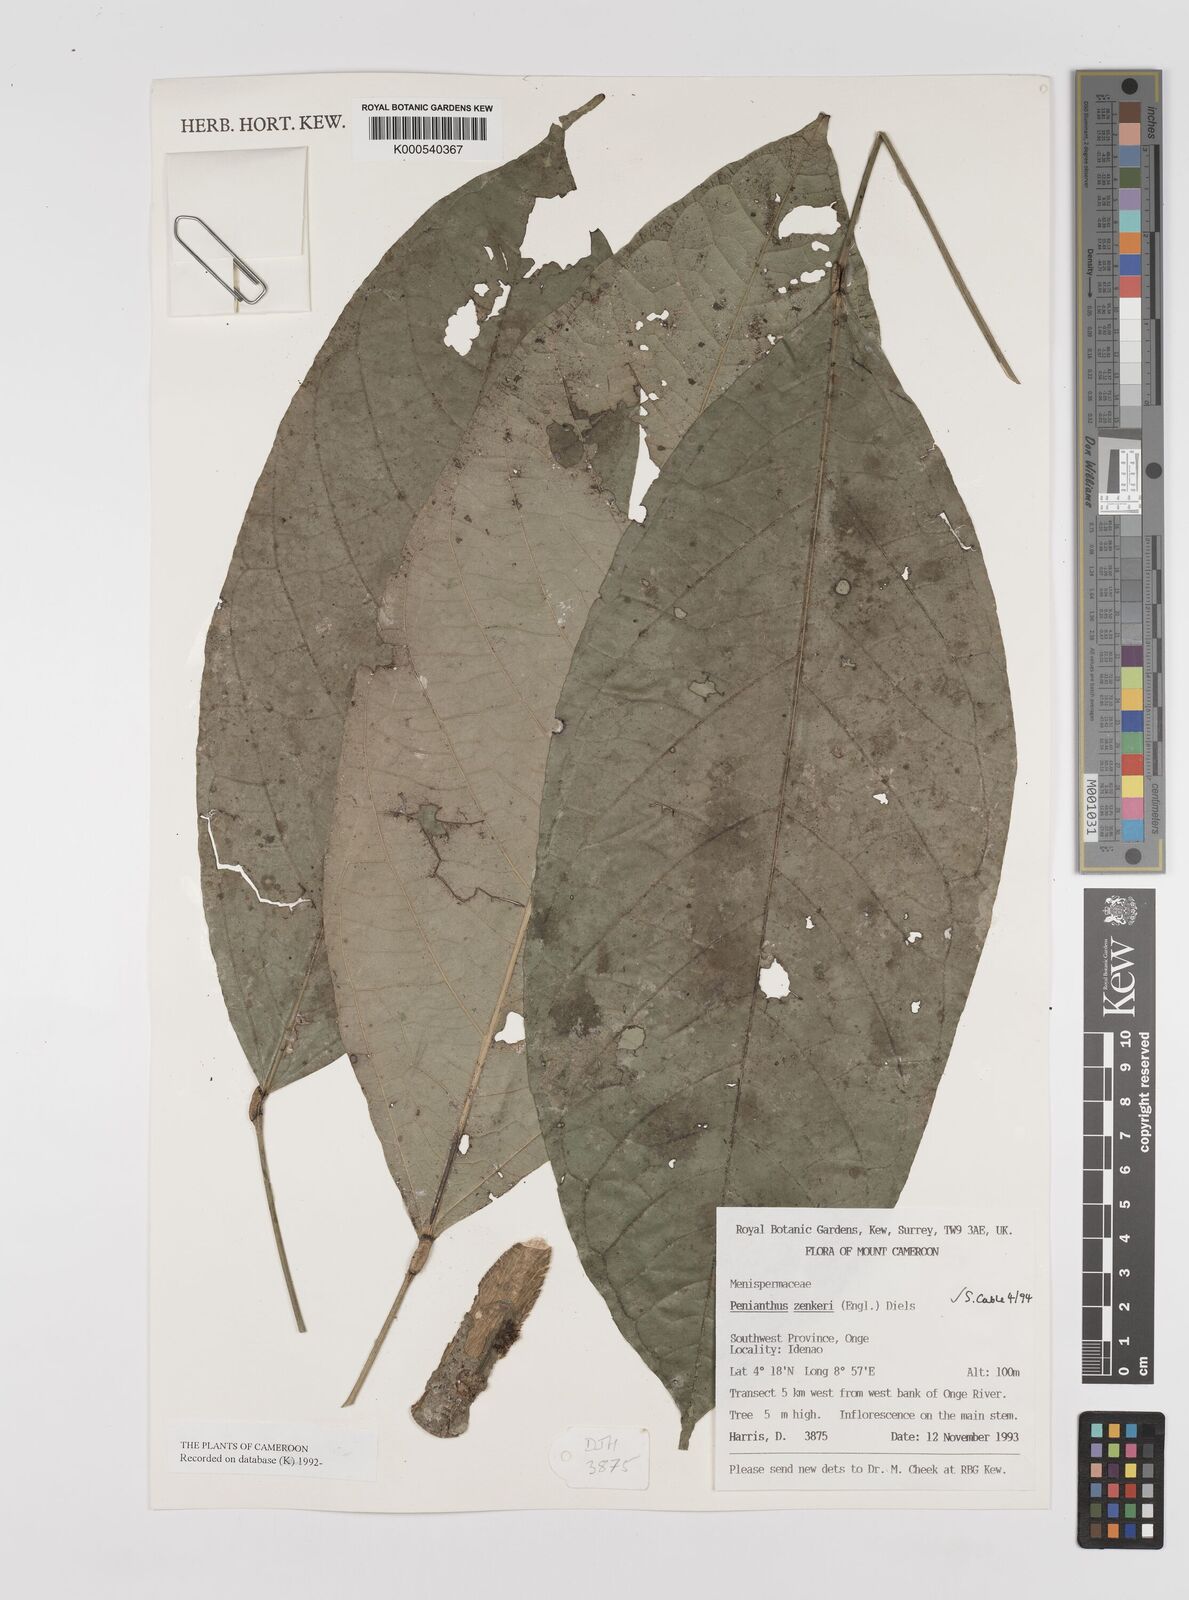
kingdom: Plantae
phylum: Tracheophyta
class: Magnoliopsida
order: Ranunculales
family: Menispermaceae
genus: Penianthus
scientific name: Penianthus zenkeri
